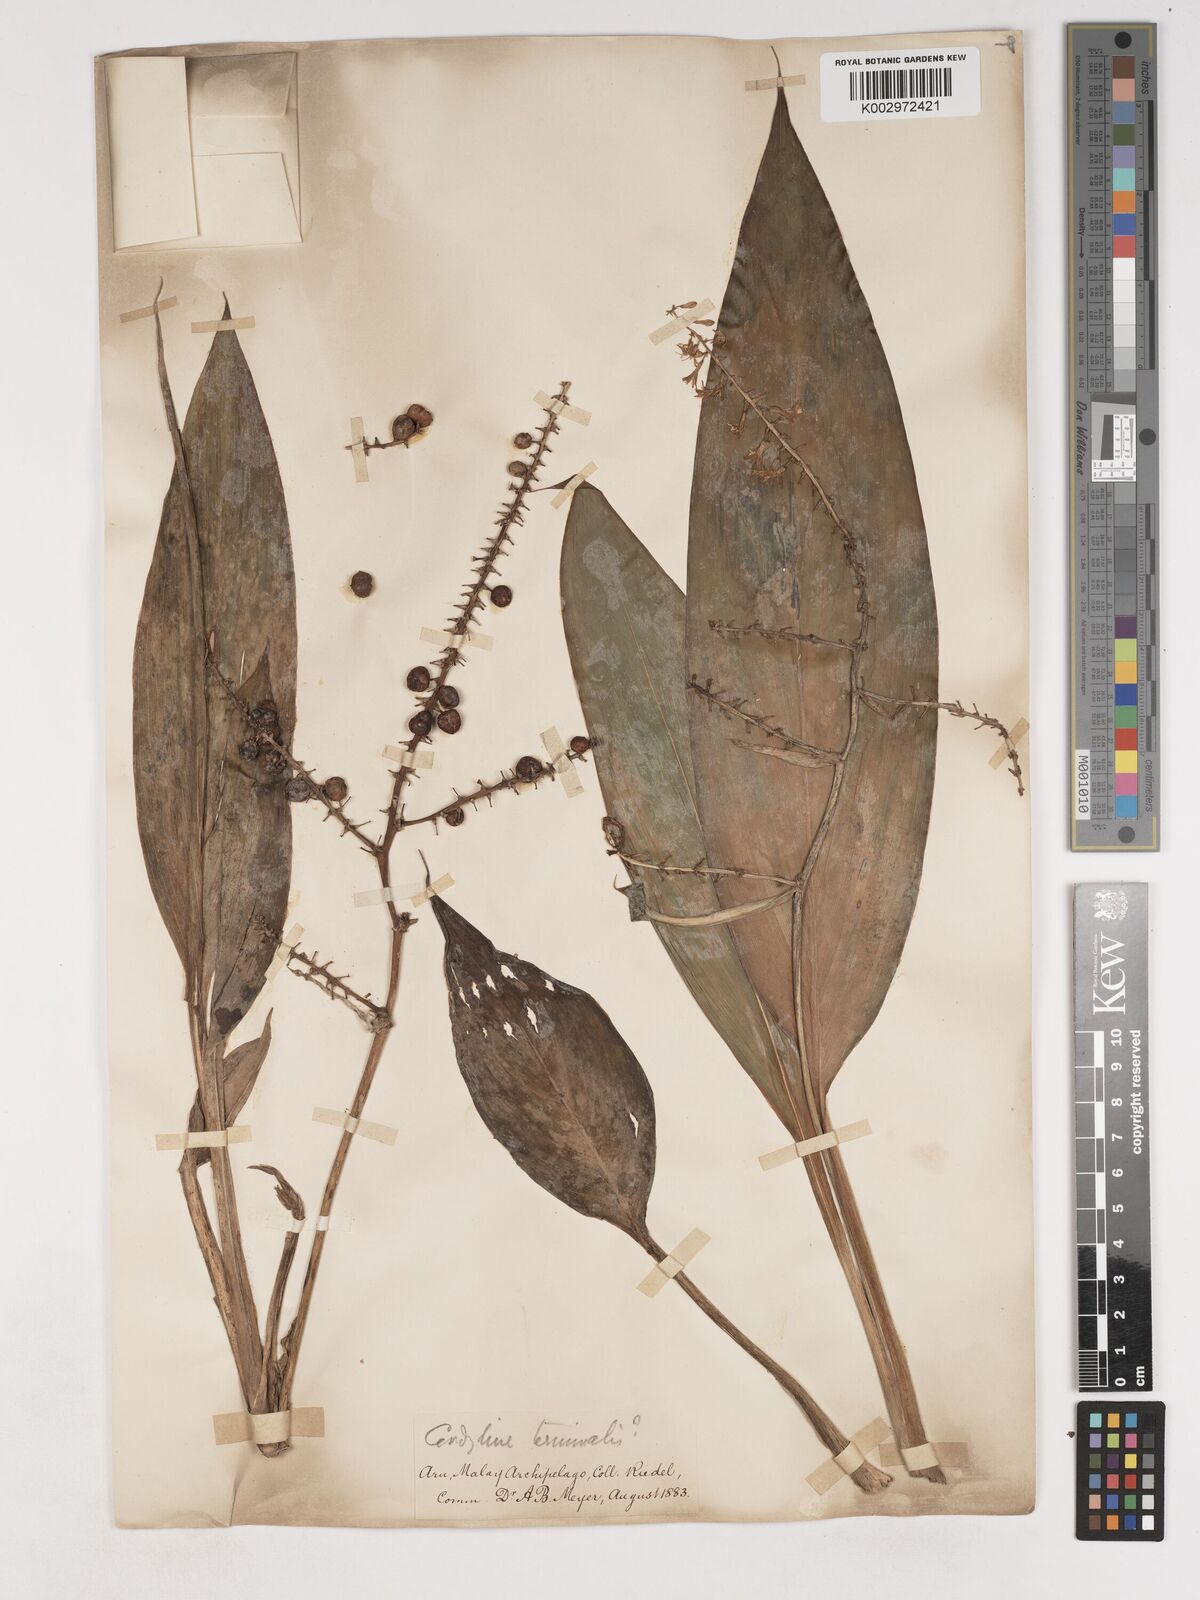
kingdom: Plantae
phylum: Tracheophyta
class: Liliopsida
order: Asparagales
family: Asparagaceae
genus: Cordyline
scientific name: Cordyline
